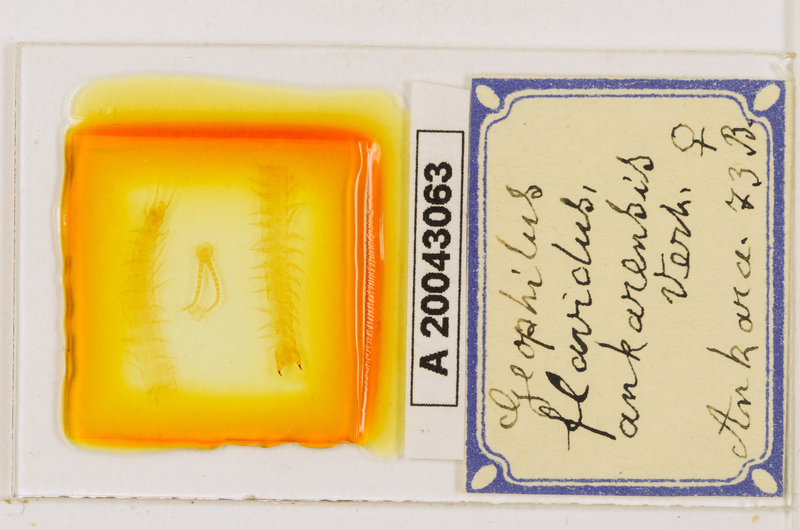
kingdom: Animalia
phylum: Arthropoda
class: Chilopoda
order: Geophilomorpha
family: Geophilidae
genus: Clinopodes
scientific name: Clinopodes flavidus
